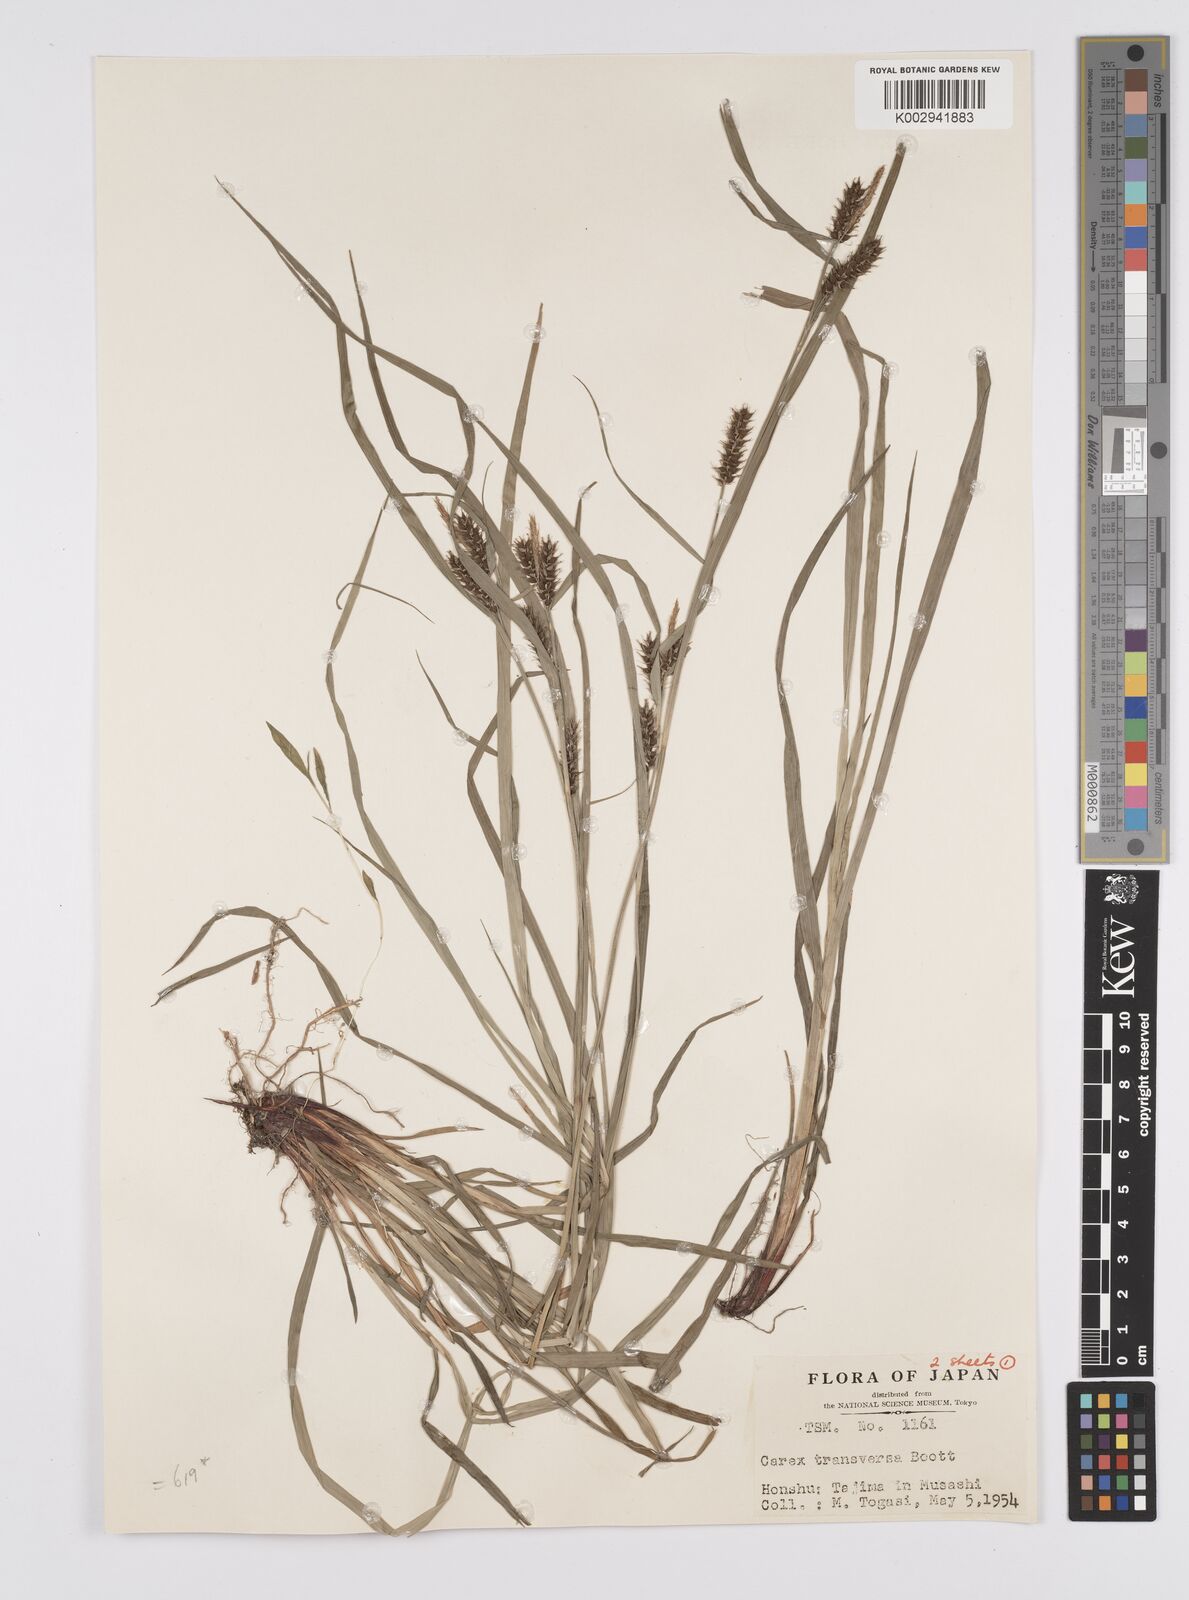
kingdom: Plantae
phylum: Tracheophyta
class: Liliopsida
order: Poales
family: Cyperaceae
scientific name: Cyperaceae
